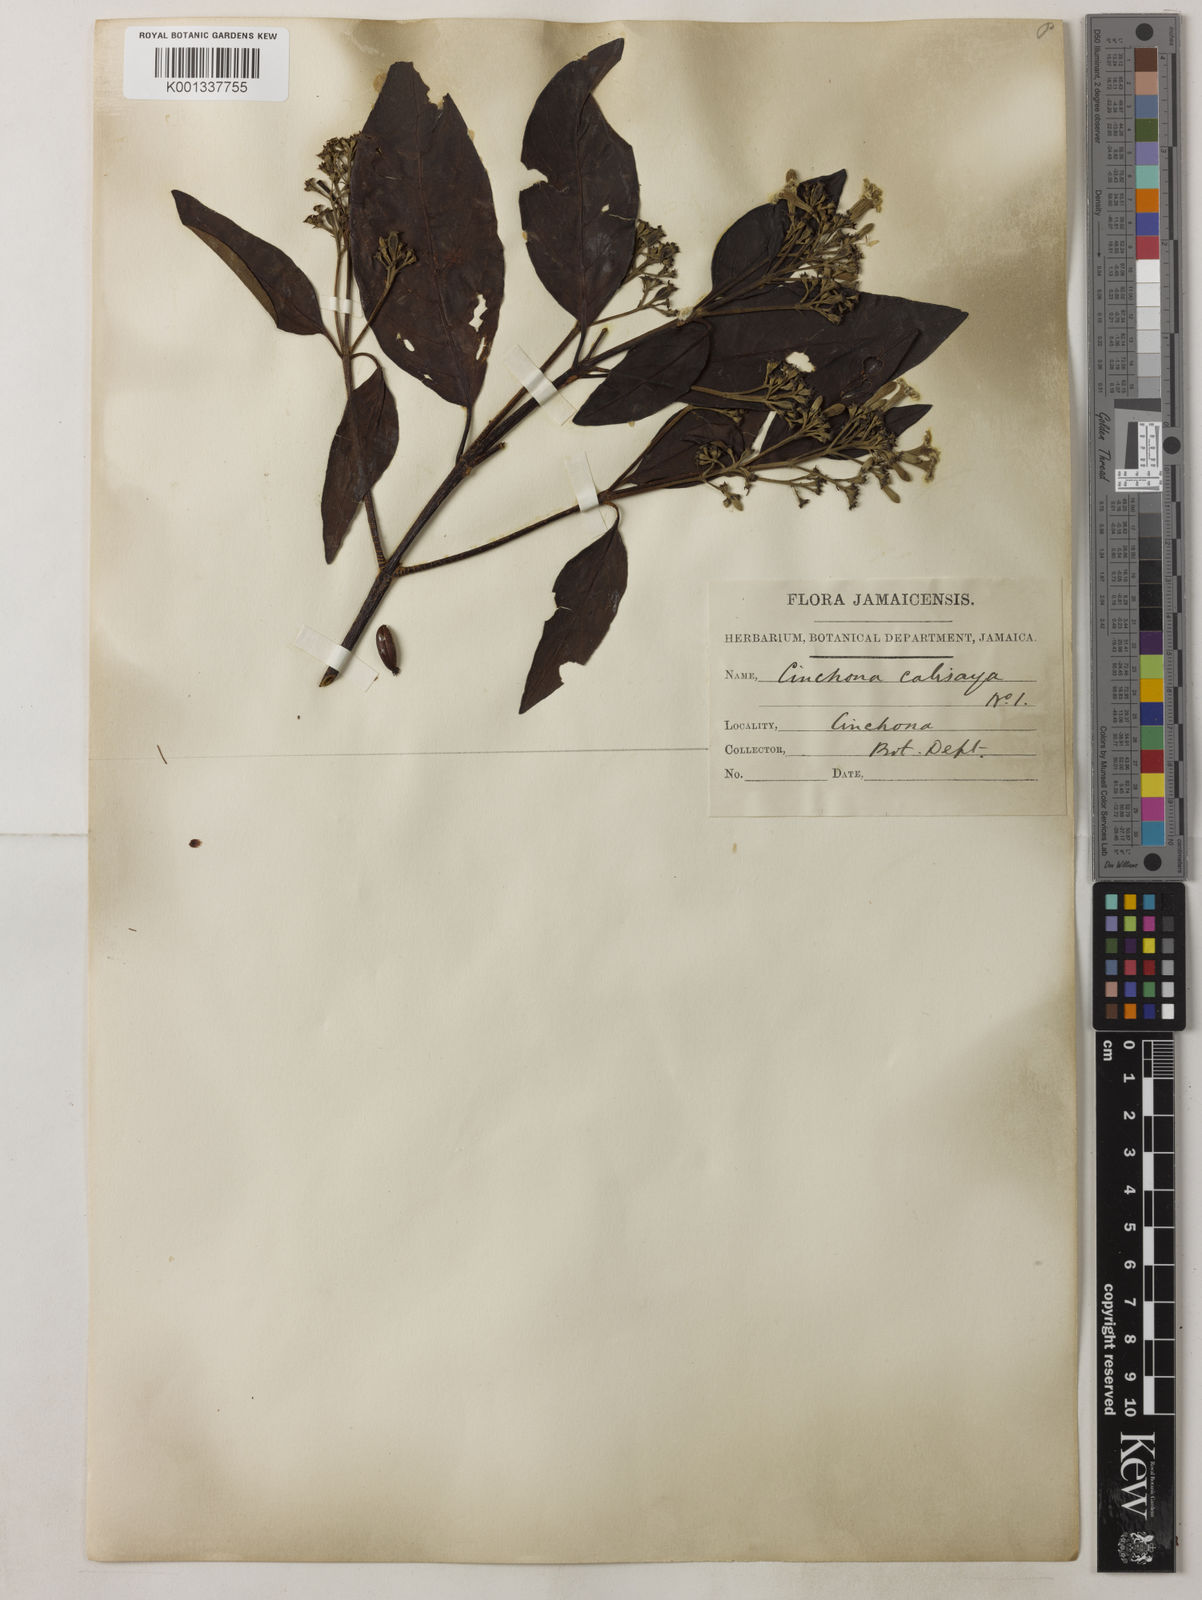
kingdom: Plantae
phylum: Tracheophyta
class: Magnoliopsida
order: Gentianales
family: Rubiaceae
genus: Cinchona
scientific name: Cinchona calisaya
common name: Ledgerbark
